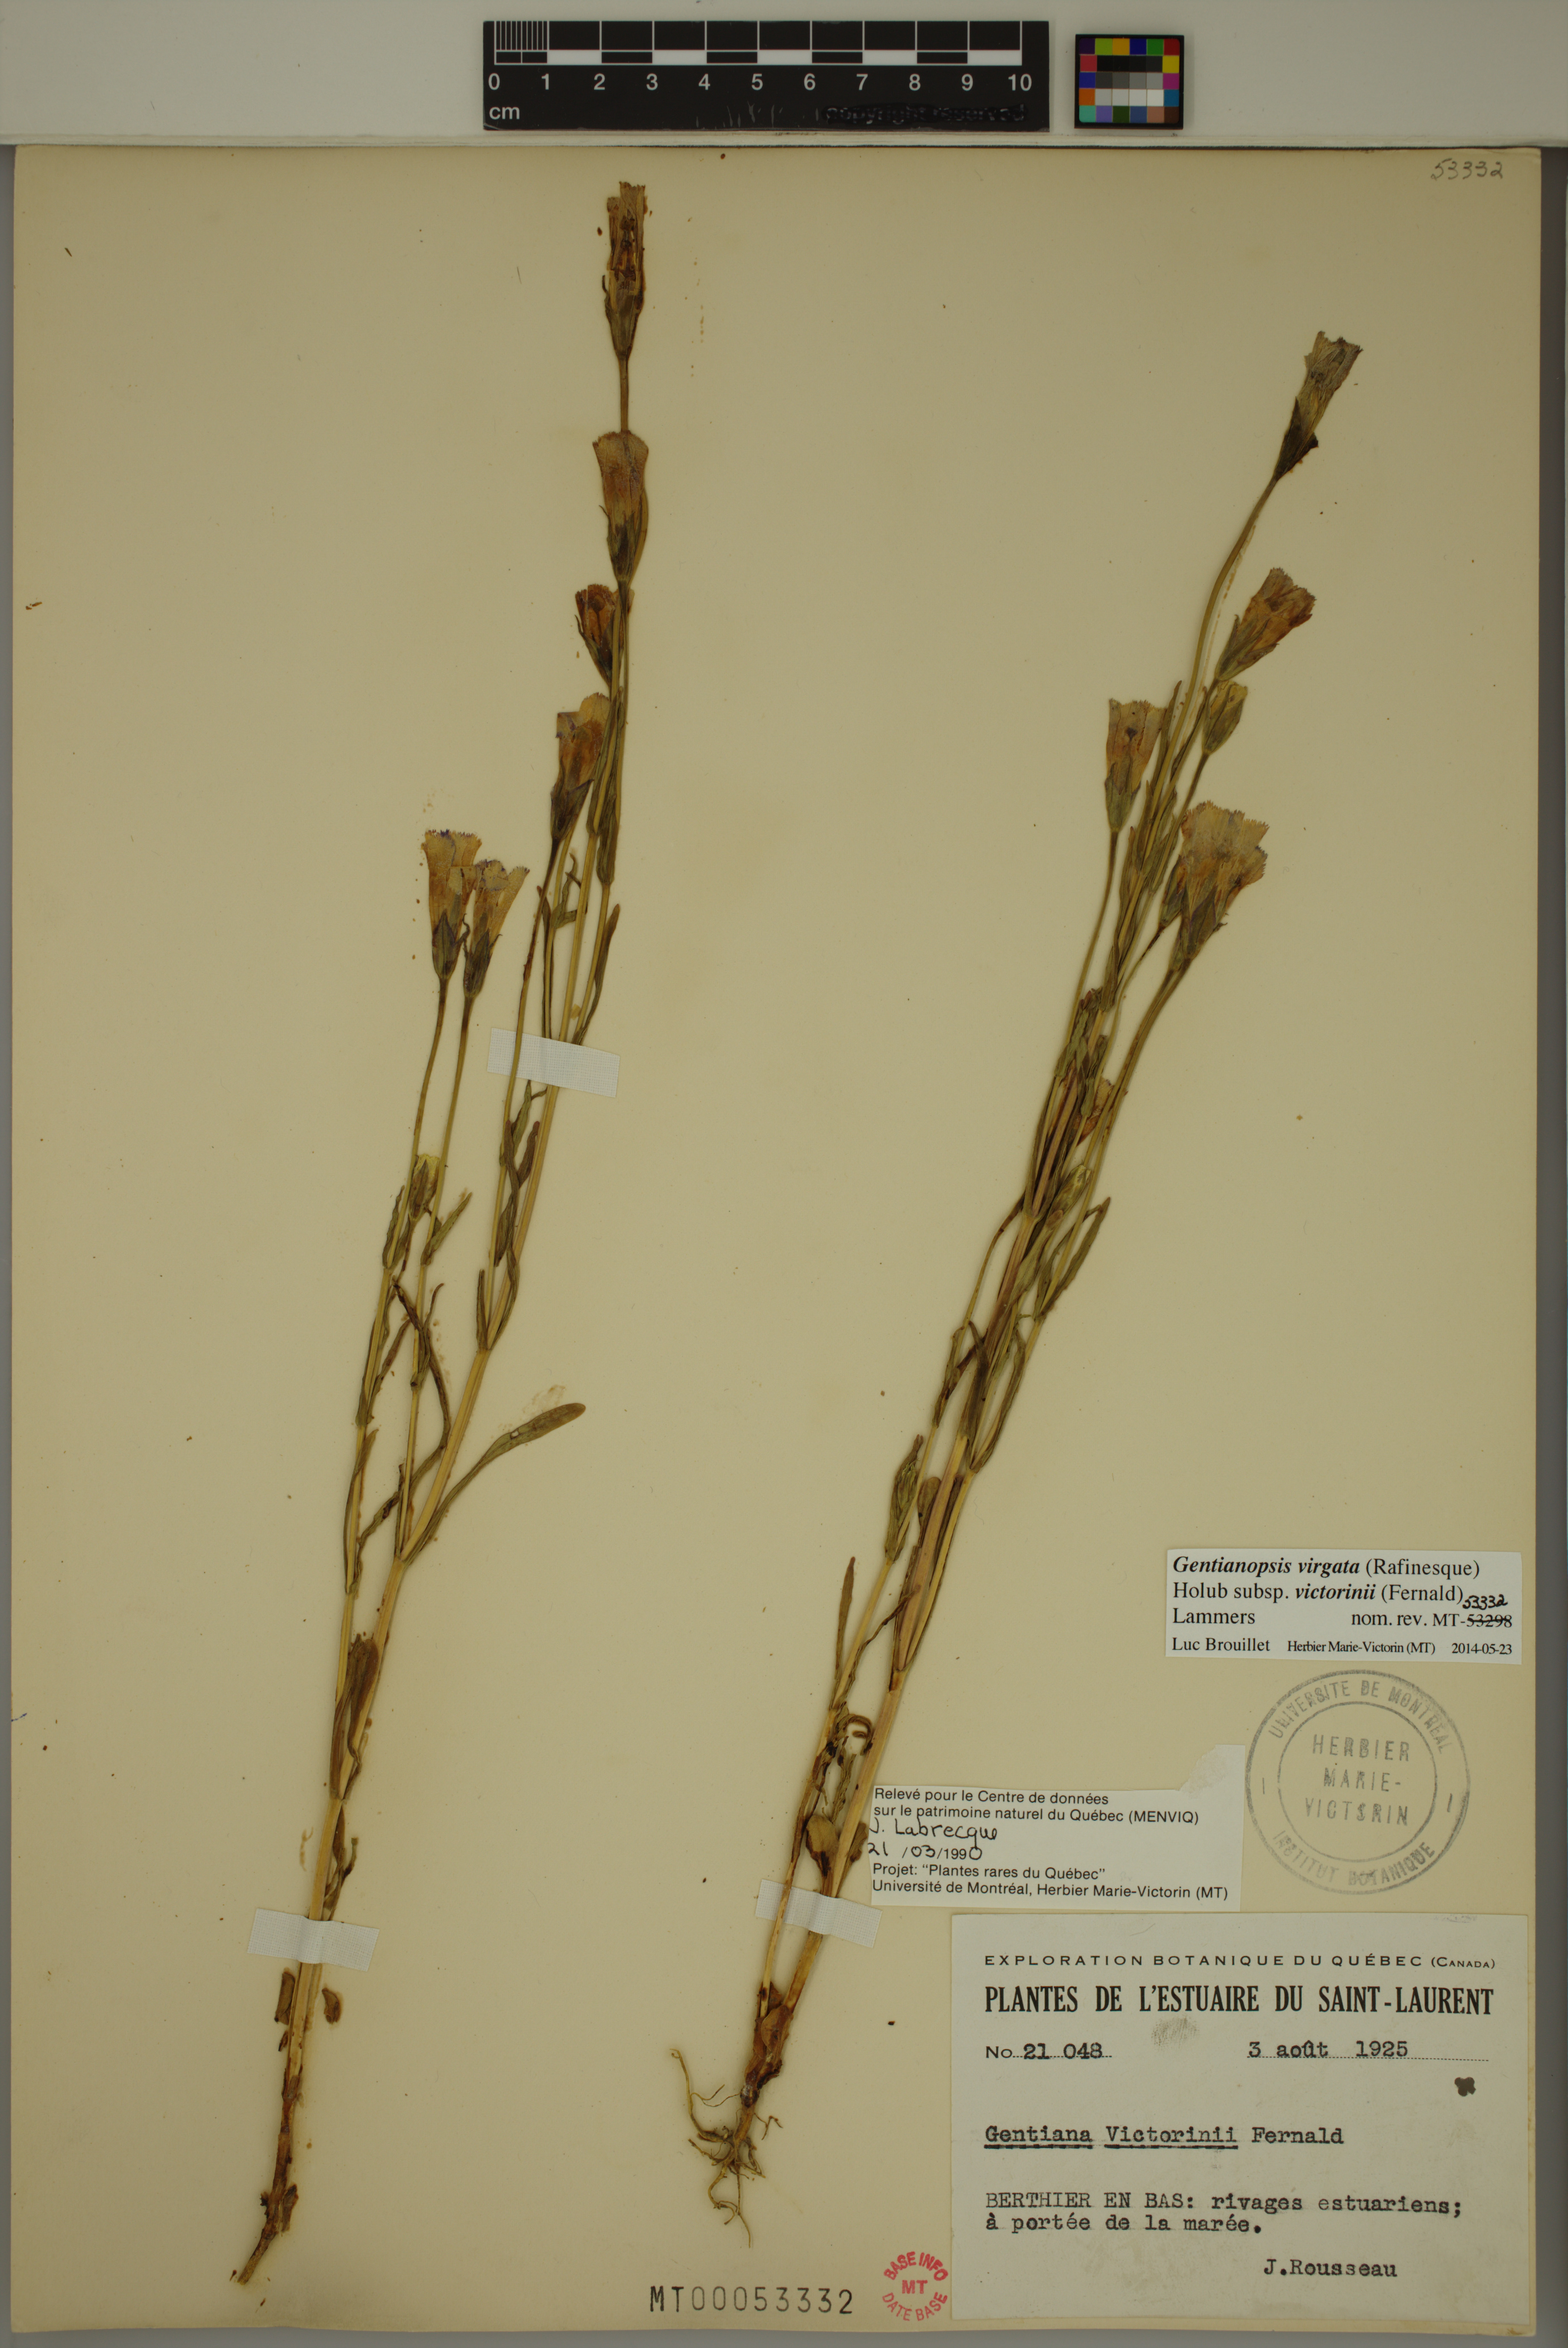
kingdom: Plantae
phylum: Tracheophyta
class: Magnoliopsida
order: Gentianales
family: Gentianaceae
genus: Gentianopsis
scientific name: Gentianopsis victorinii
